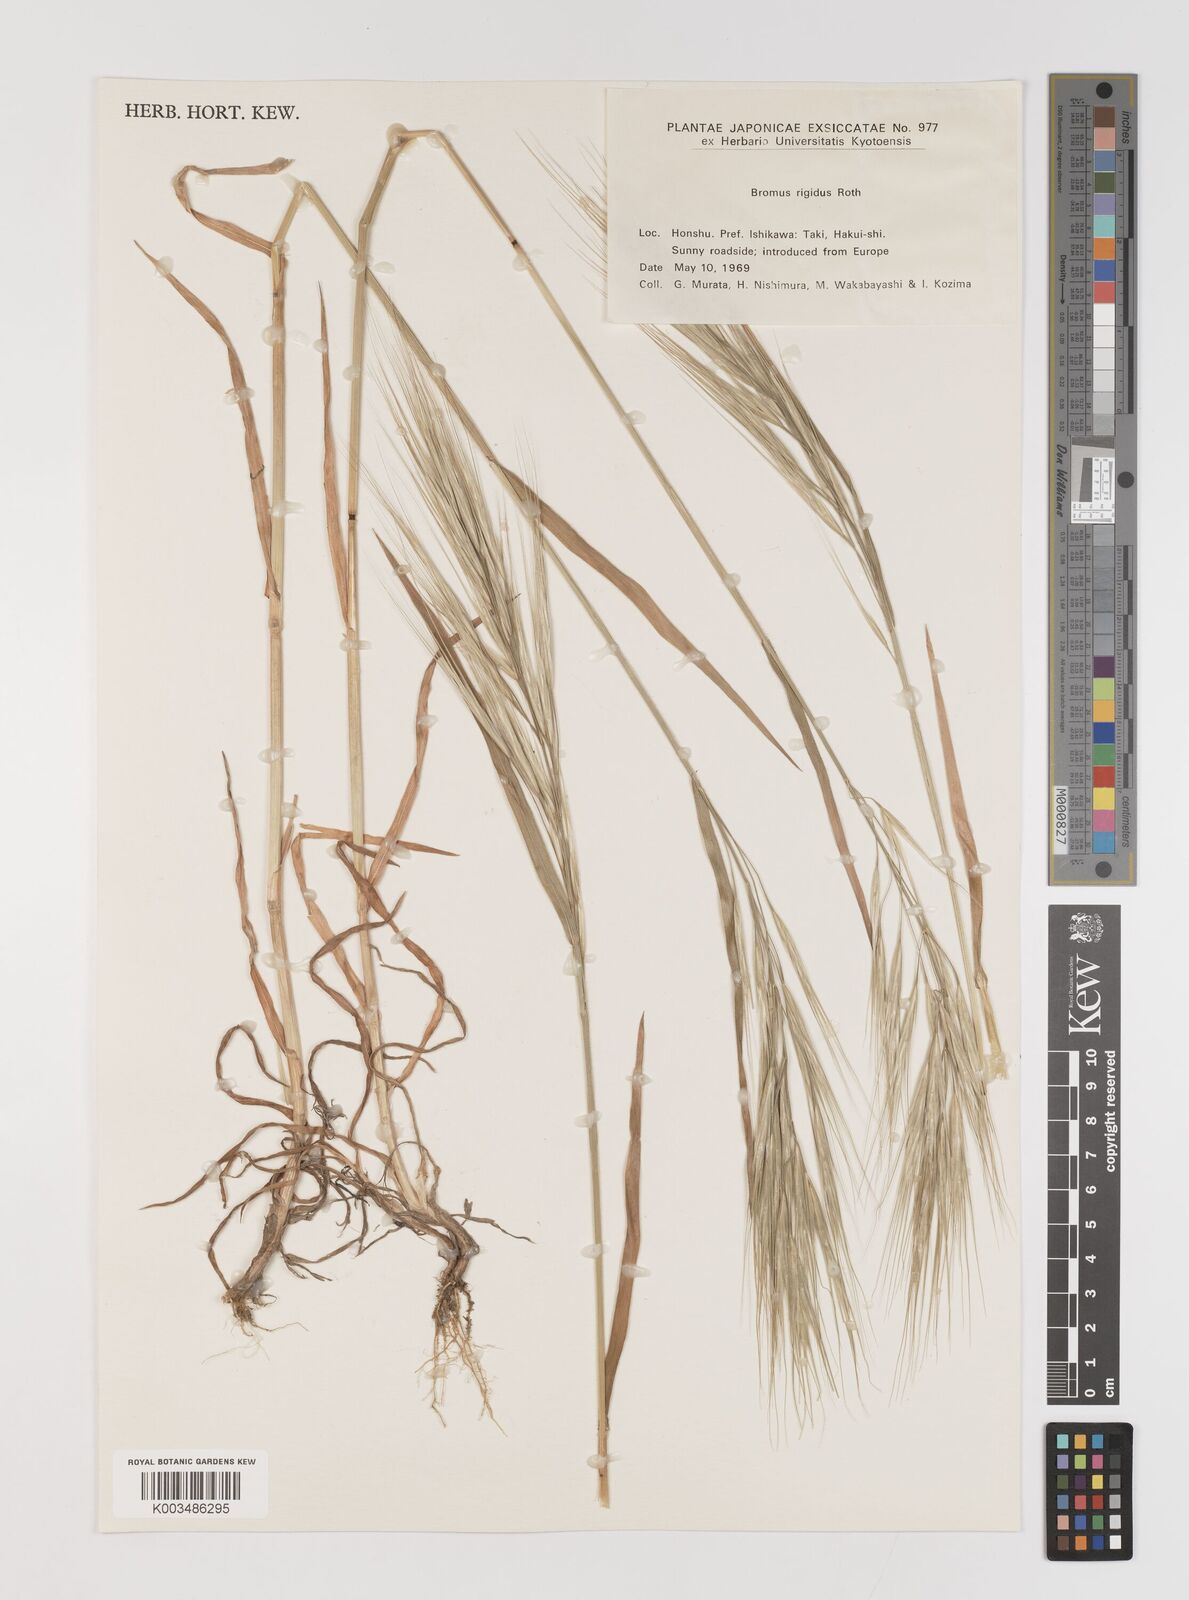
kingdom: Plantae
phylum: Tracheophyta
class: Liliopsida
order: Poales
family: Poaceae
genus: Bromus
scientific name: Bromus diandrus
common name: Ripgut brome
